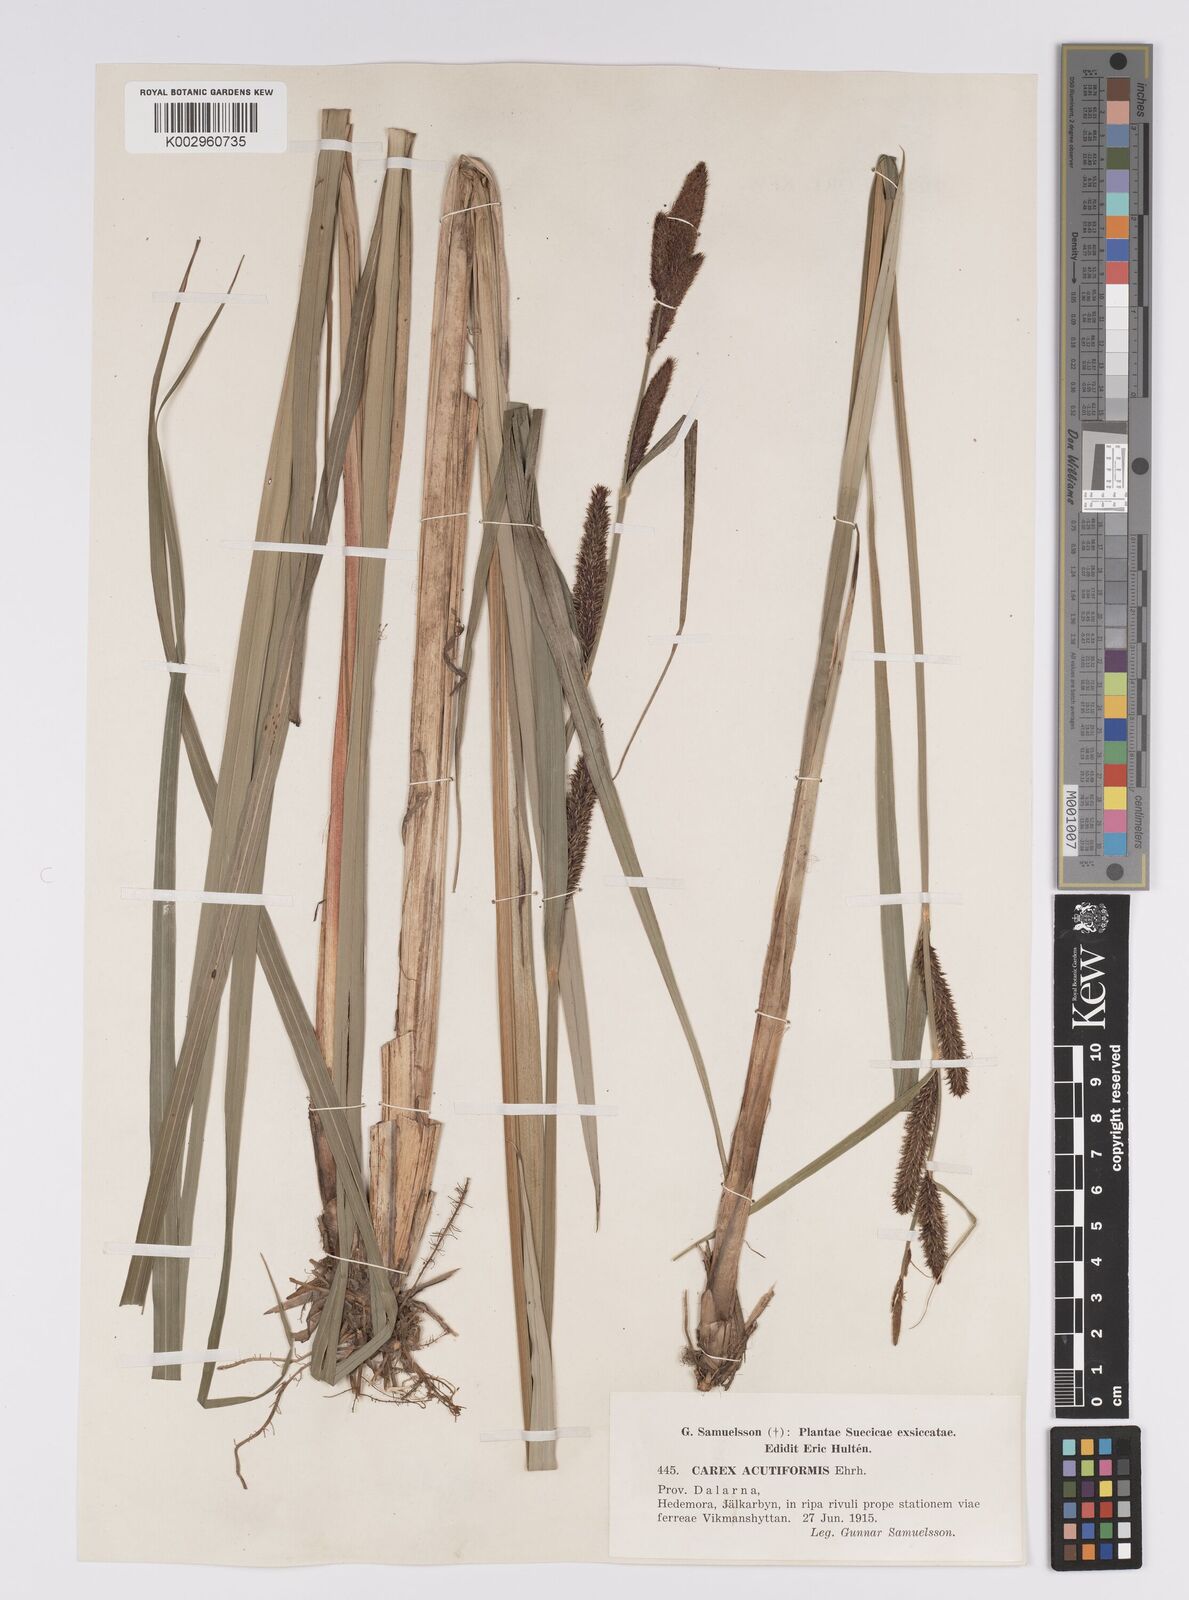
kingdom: Plantae
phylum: Tracheophyta
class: Liliopsida
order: Poales
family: Cyperaceae
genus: Carex
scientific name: Carex acutiformis
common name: Lesser pond-sedge
